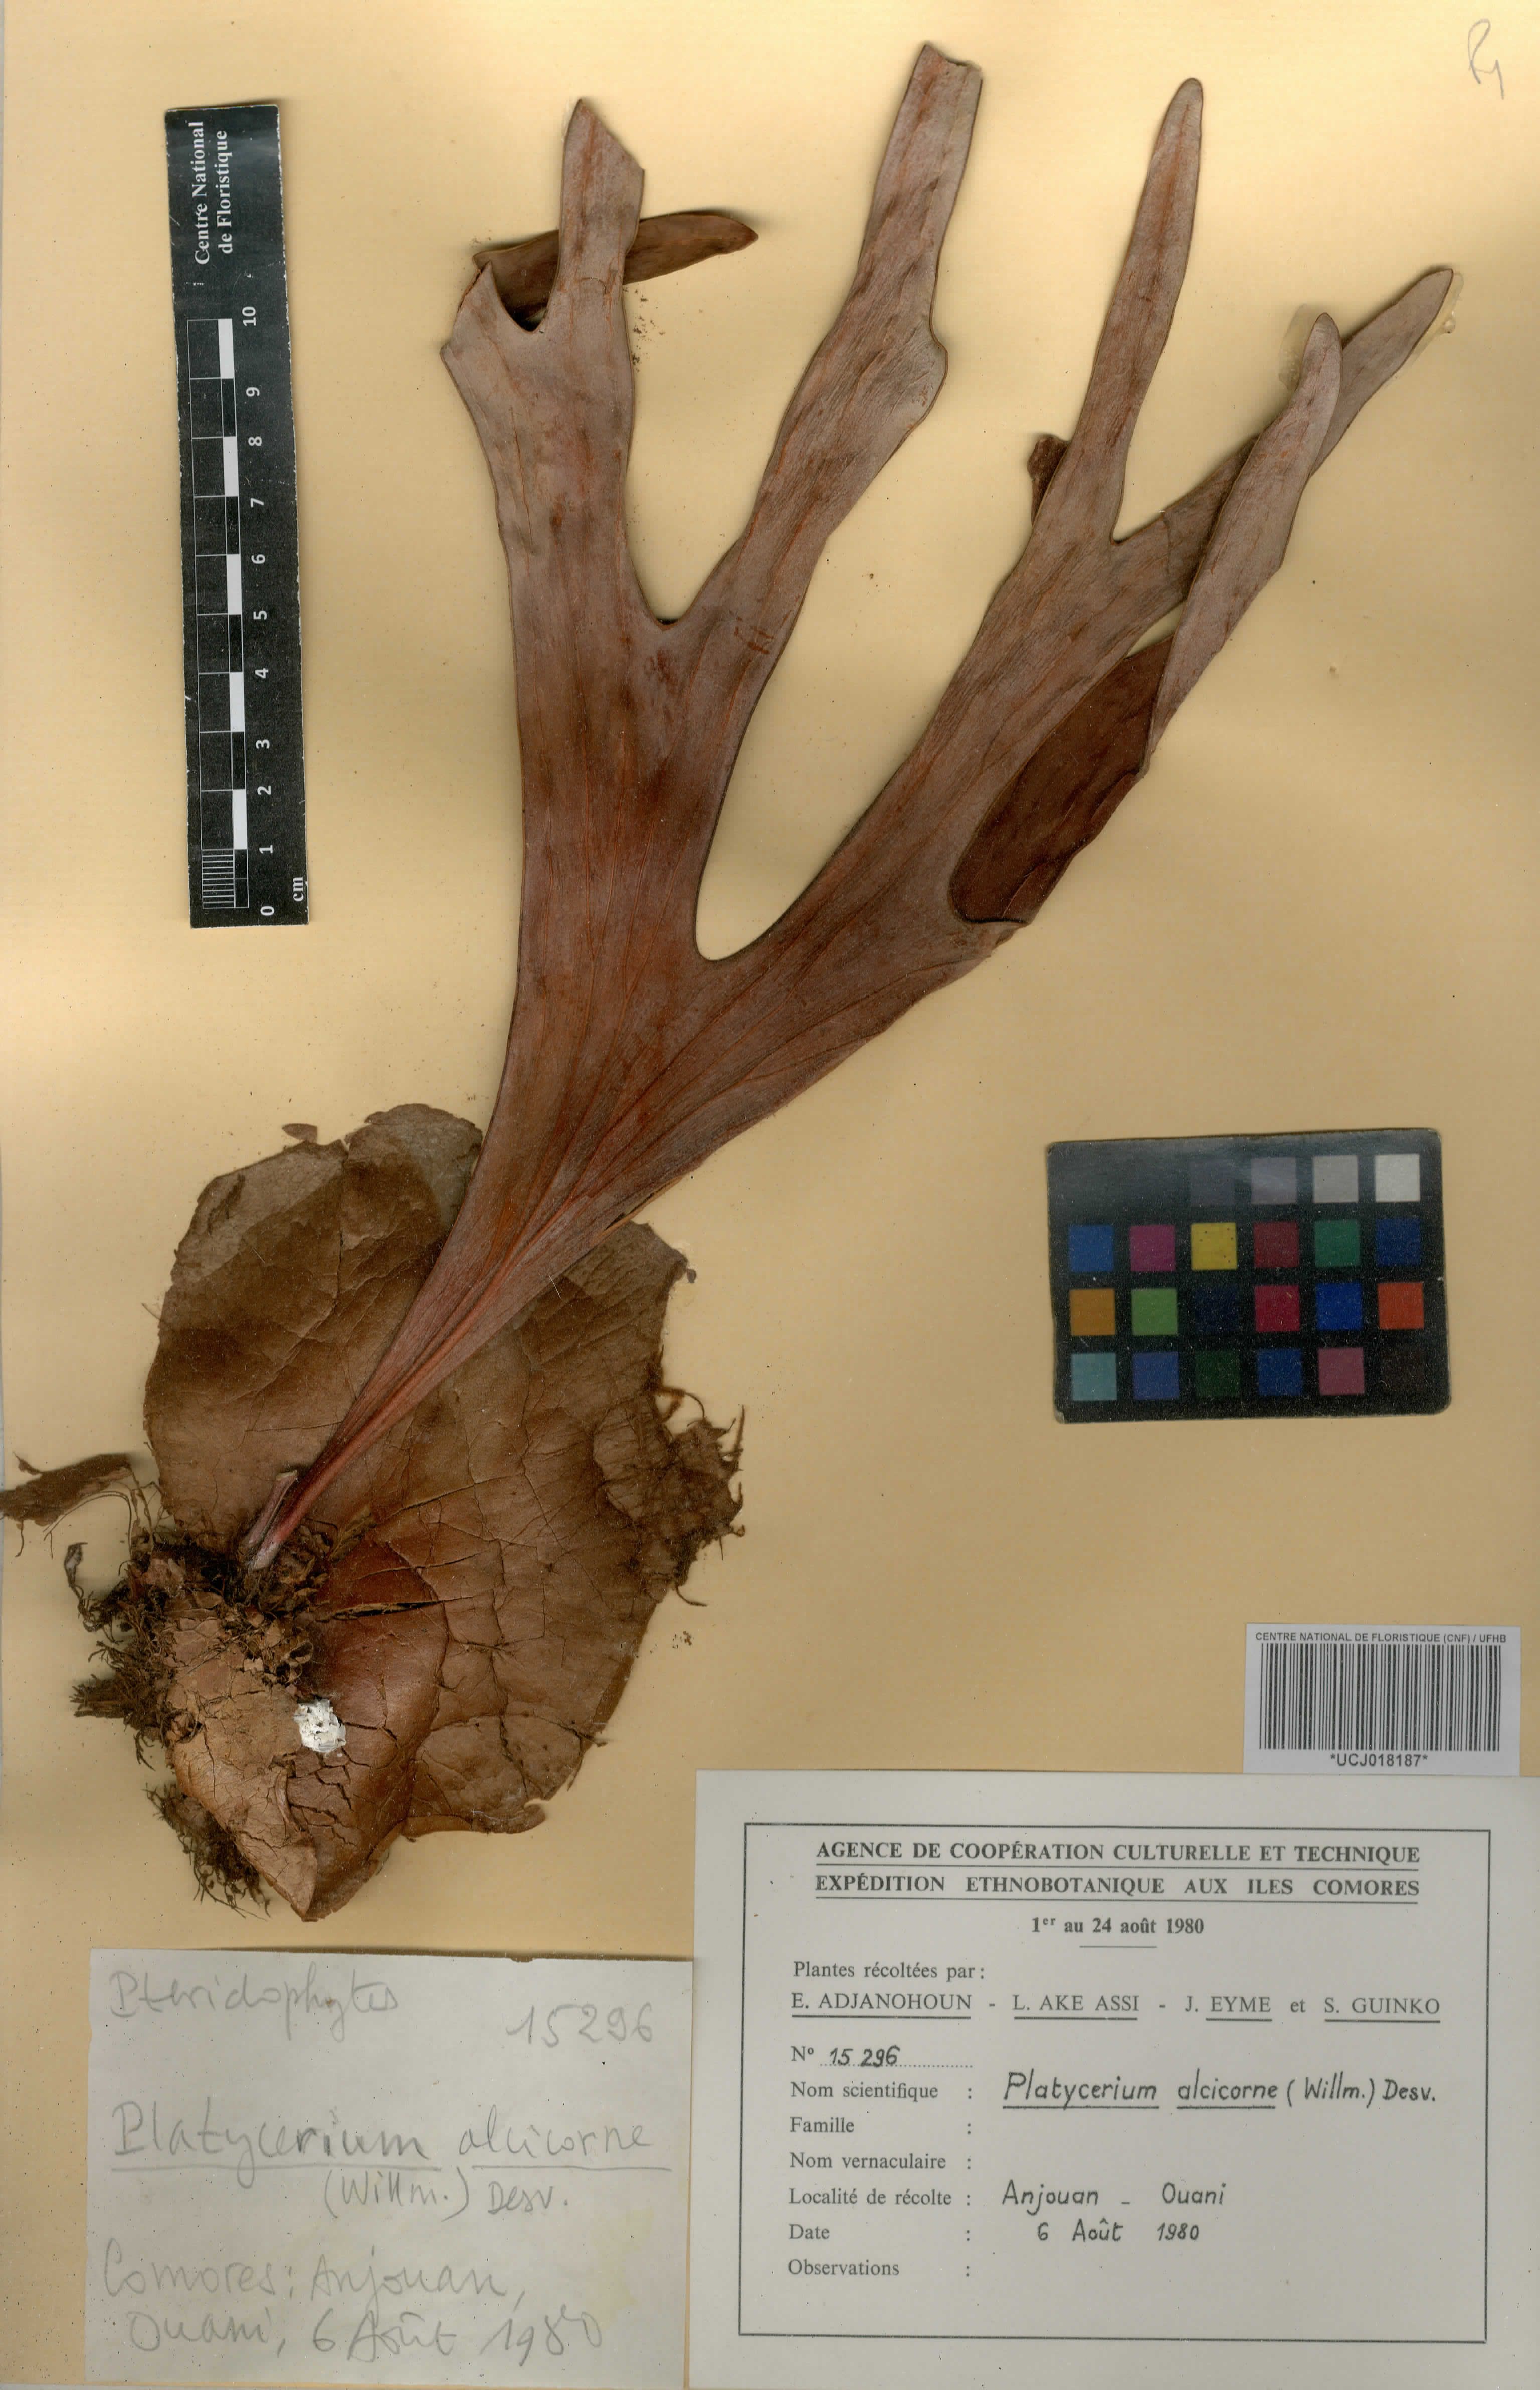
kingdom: Plantae
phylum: Tracheophyta
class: Polypodiopsida
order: Polypodiales
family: Polypodiaceae
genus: Platycerium
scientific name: Platycerium alcicorne
